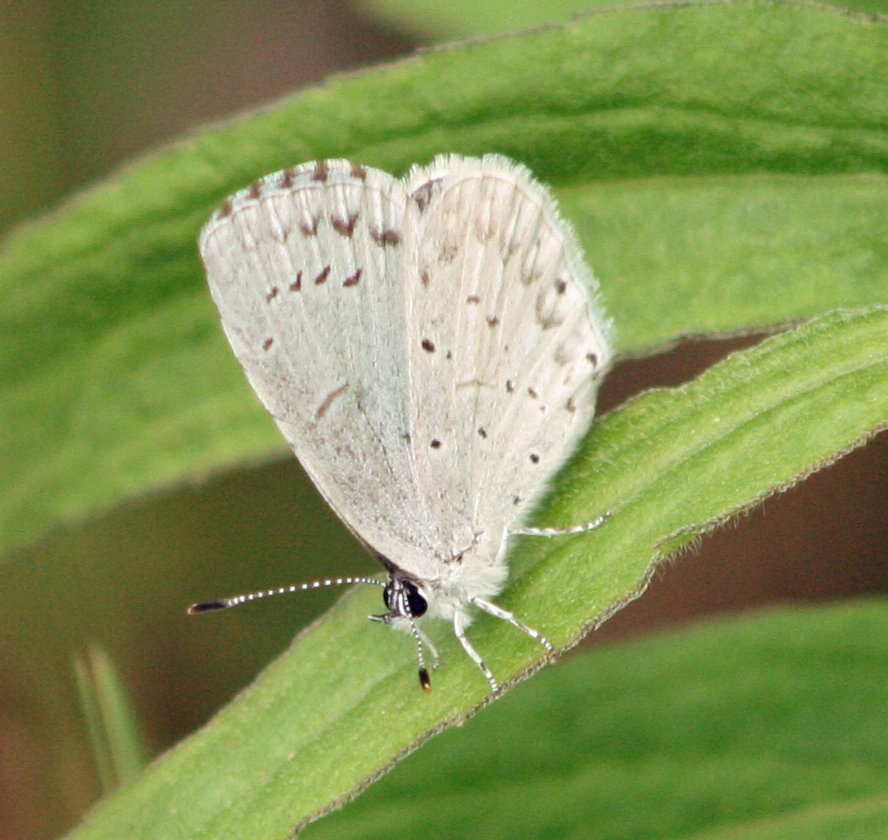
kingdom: Animalia
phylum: Arthropoda
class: Insecta
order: Lepidoptera
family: Lycaenidae
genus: Celastrina
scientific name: Celastrina
